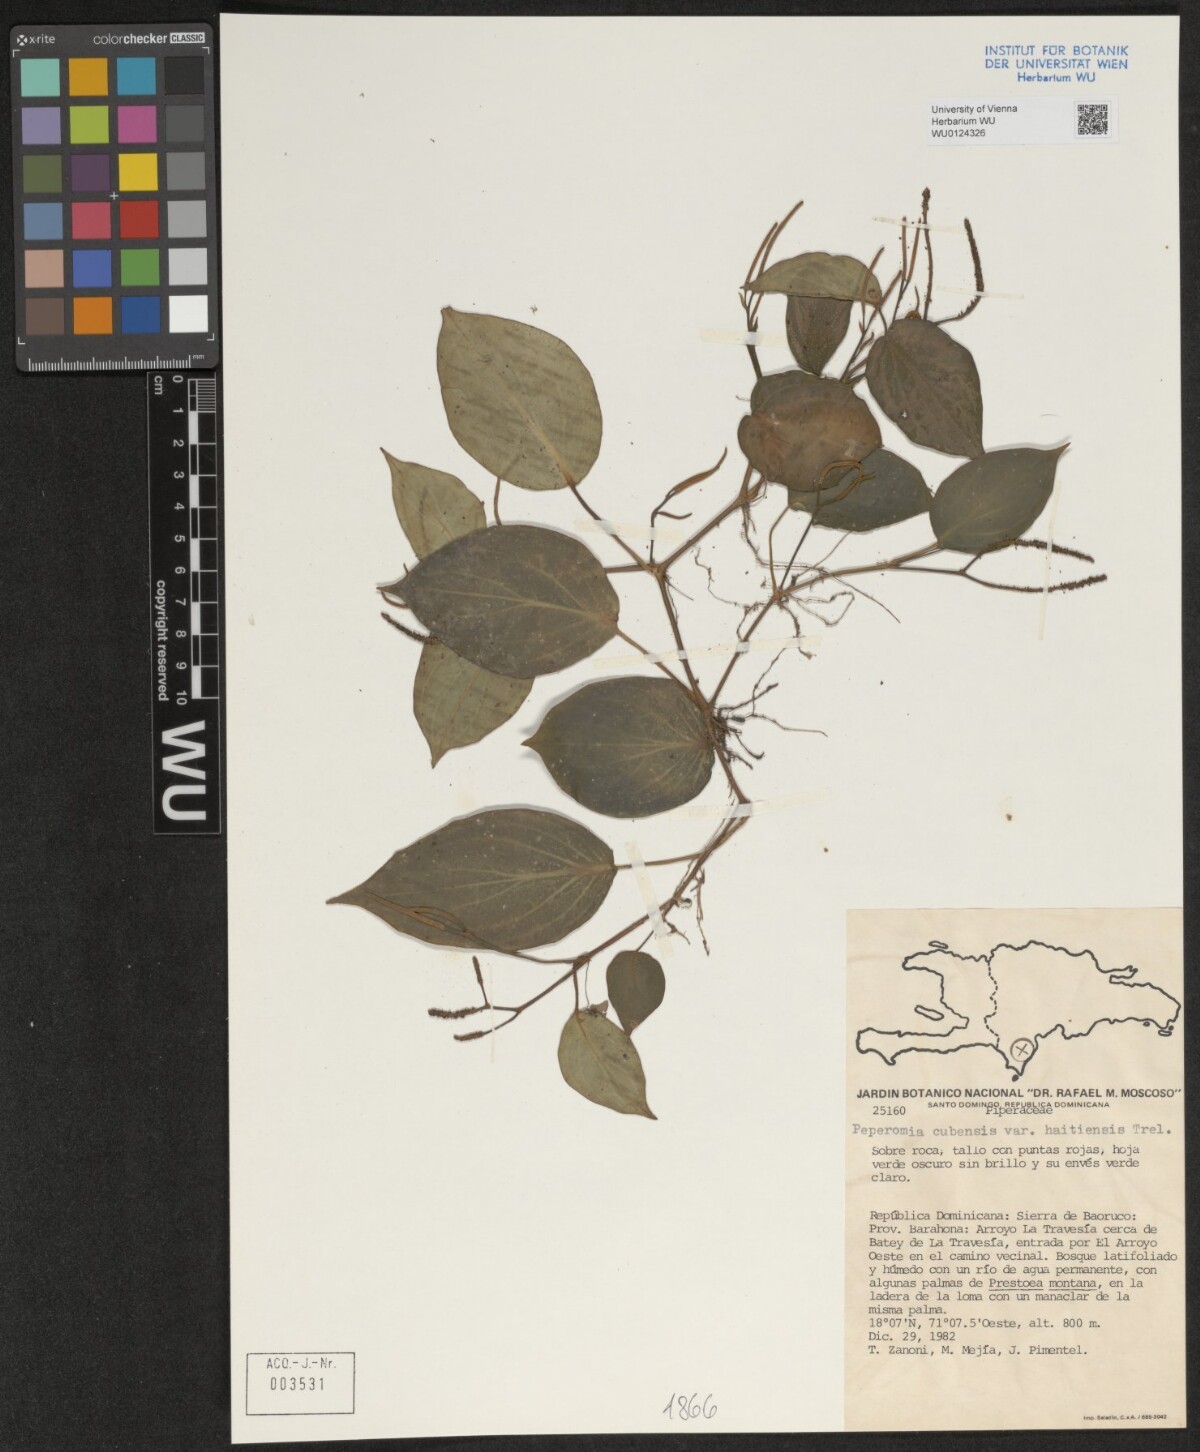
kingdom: Plantae
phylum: Tracheophyta
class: Magnoliopsida
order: Piperales
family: Piperaceae
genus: Peperomia
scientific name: Peperomia guadaloupensis
